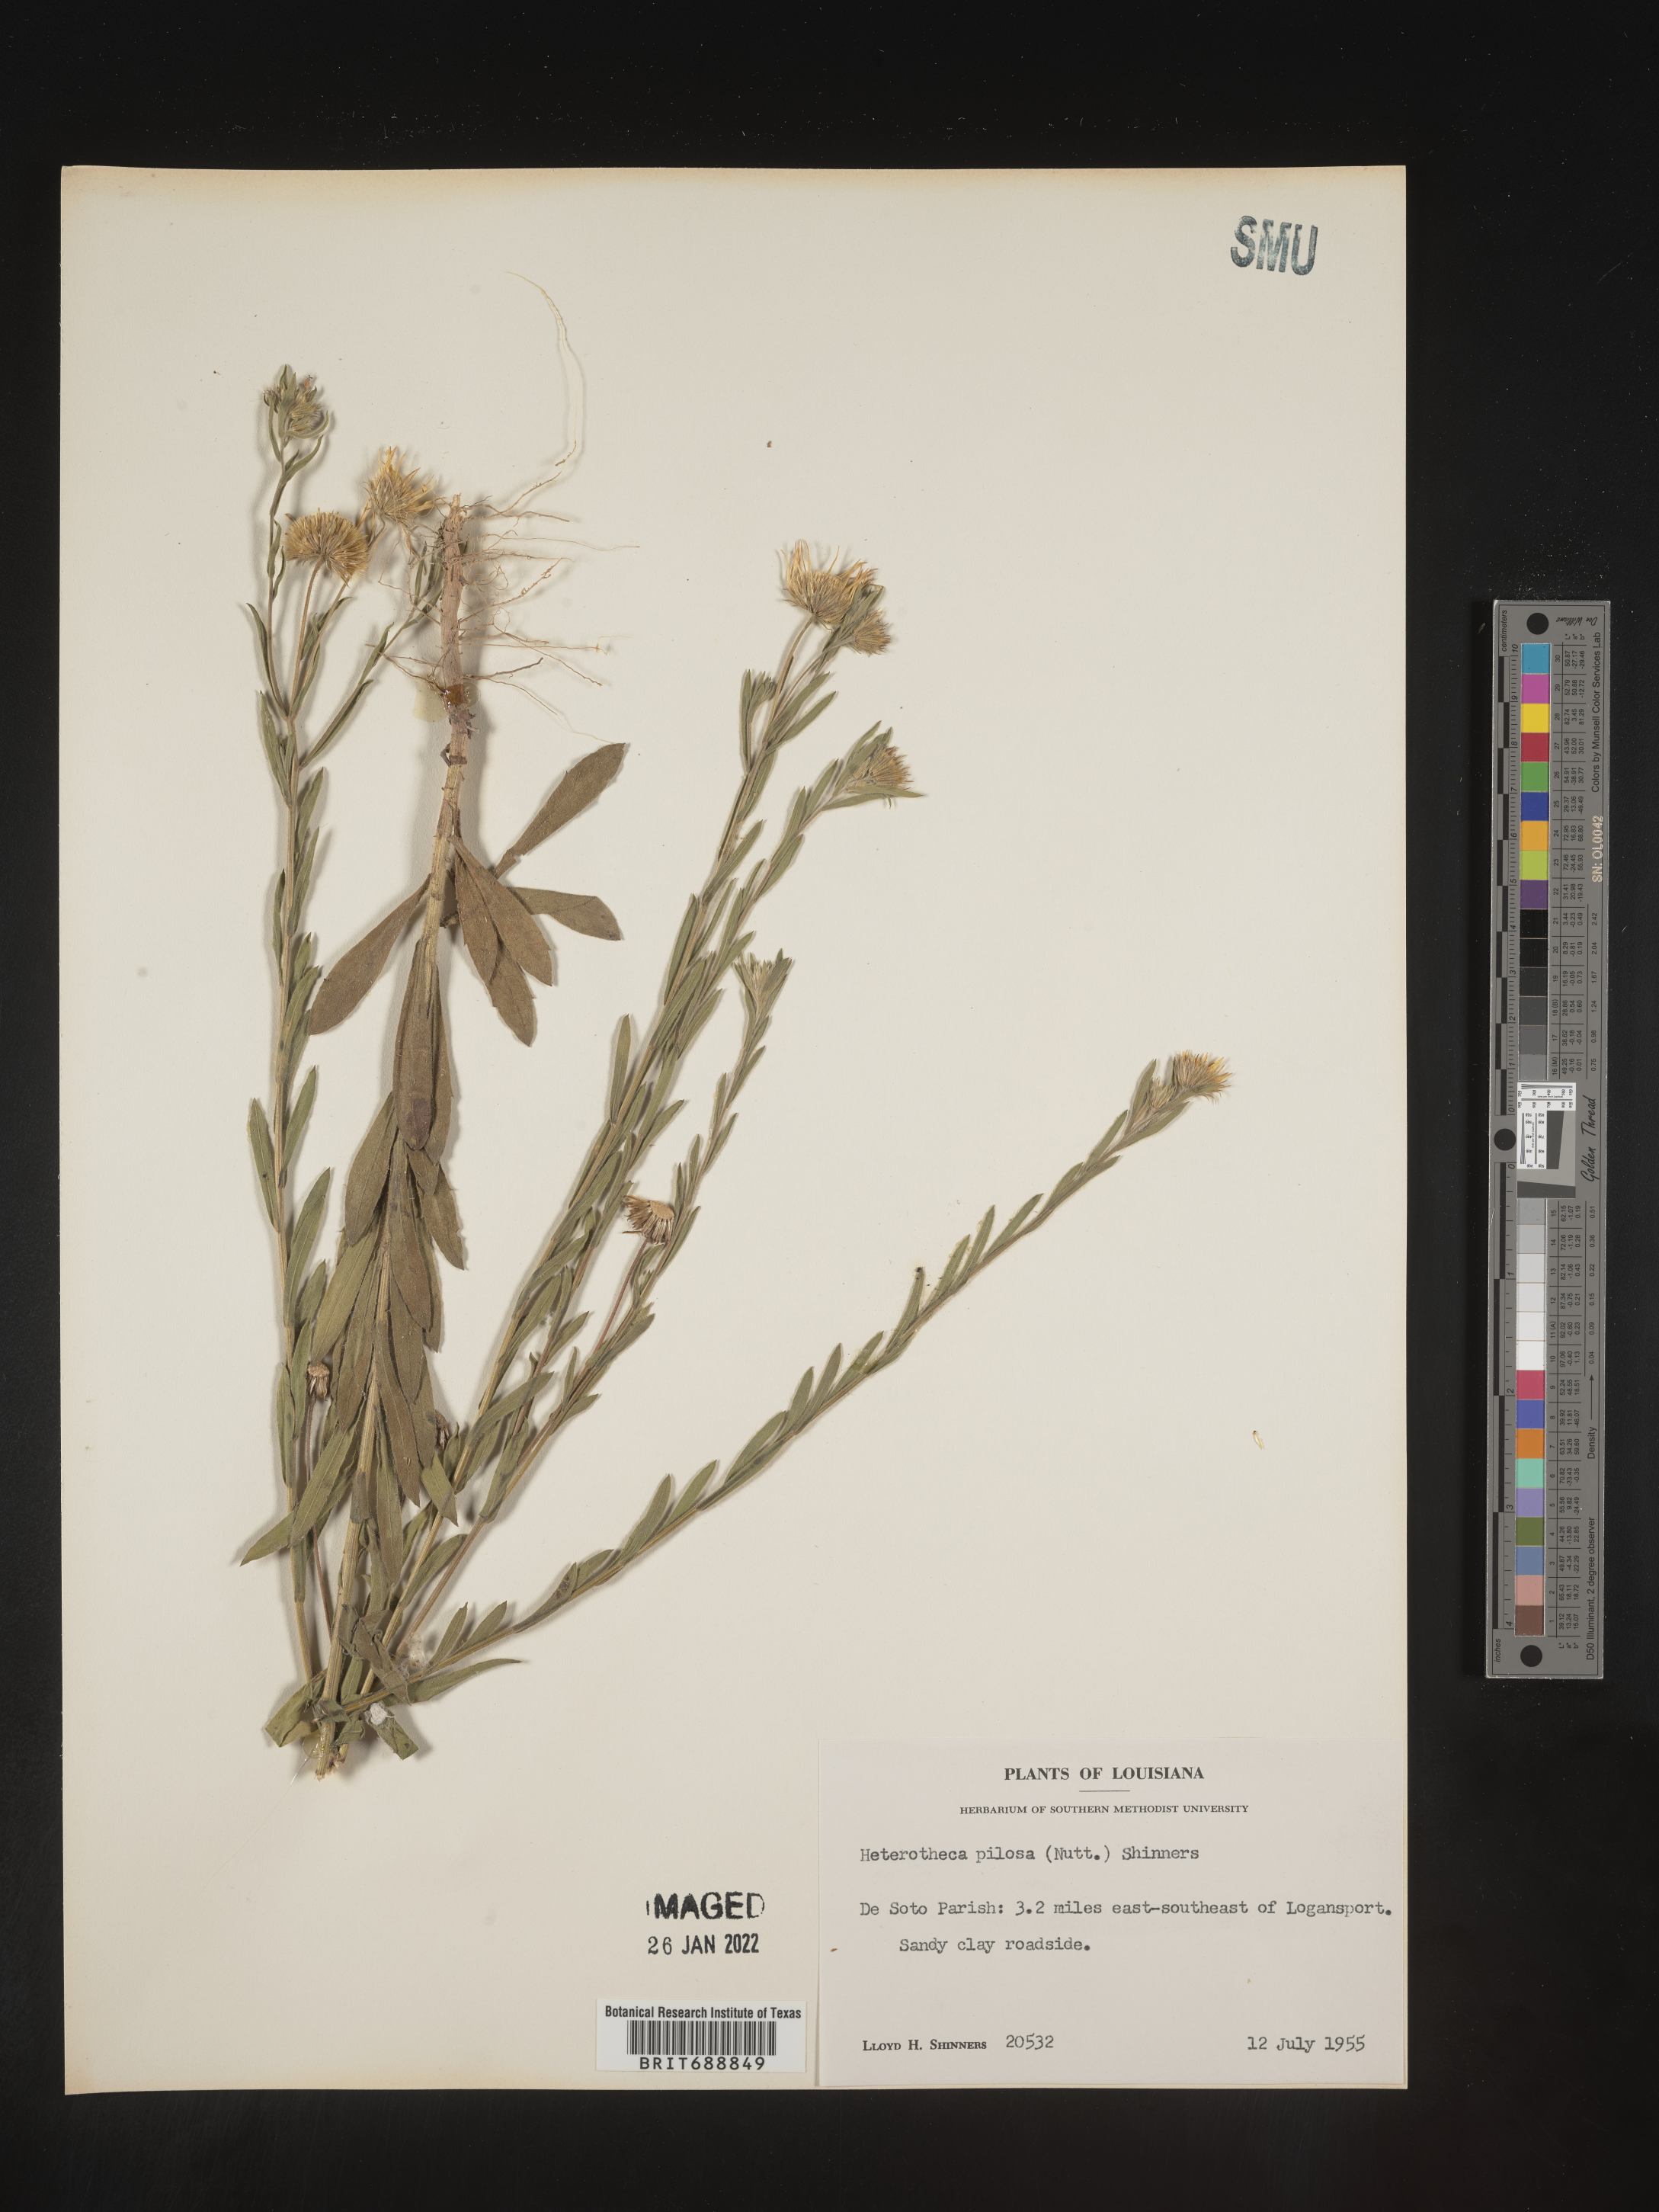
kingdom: Plantae
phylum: Tracheophyta
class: Magnoliopsida
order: Asterales
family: Asteraceae
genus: Bradburia
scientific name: Bradburia pilosa
